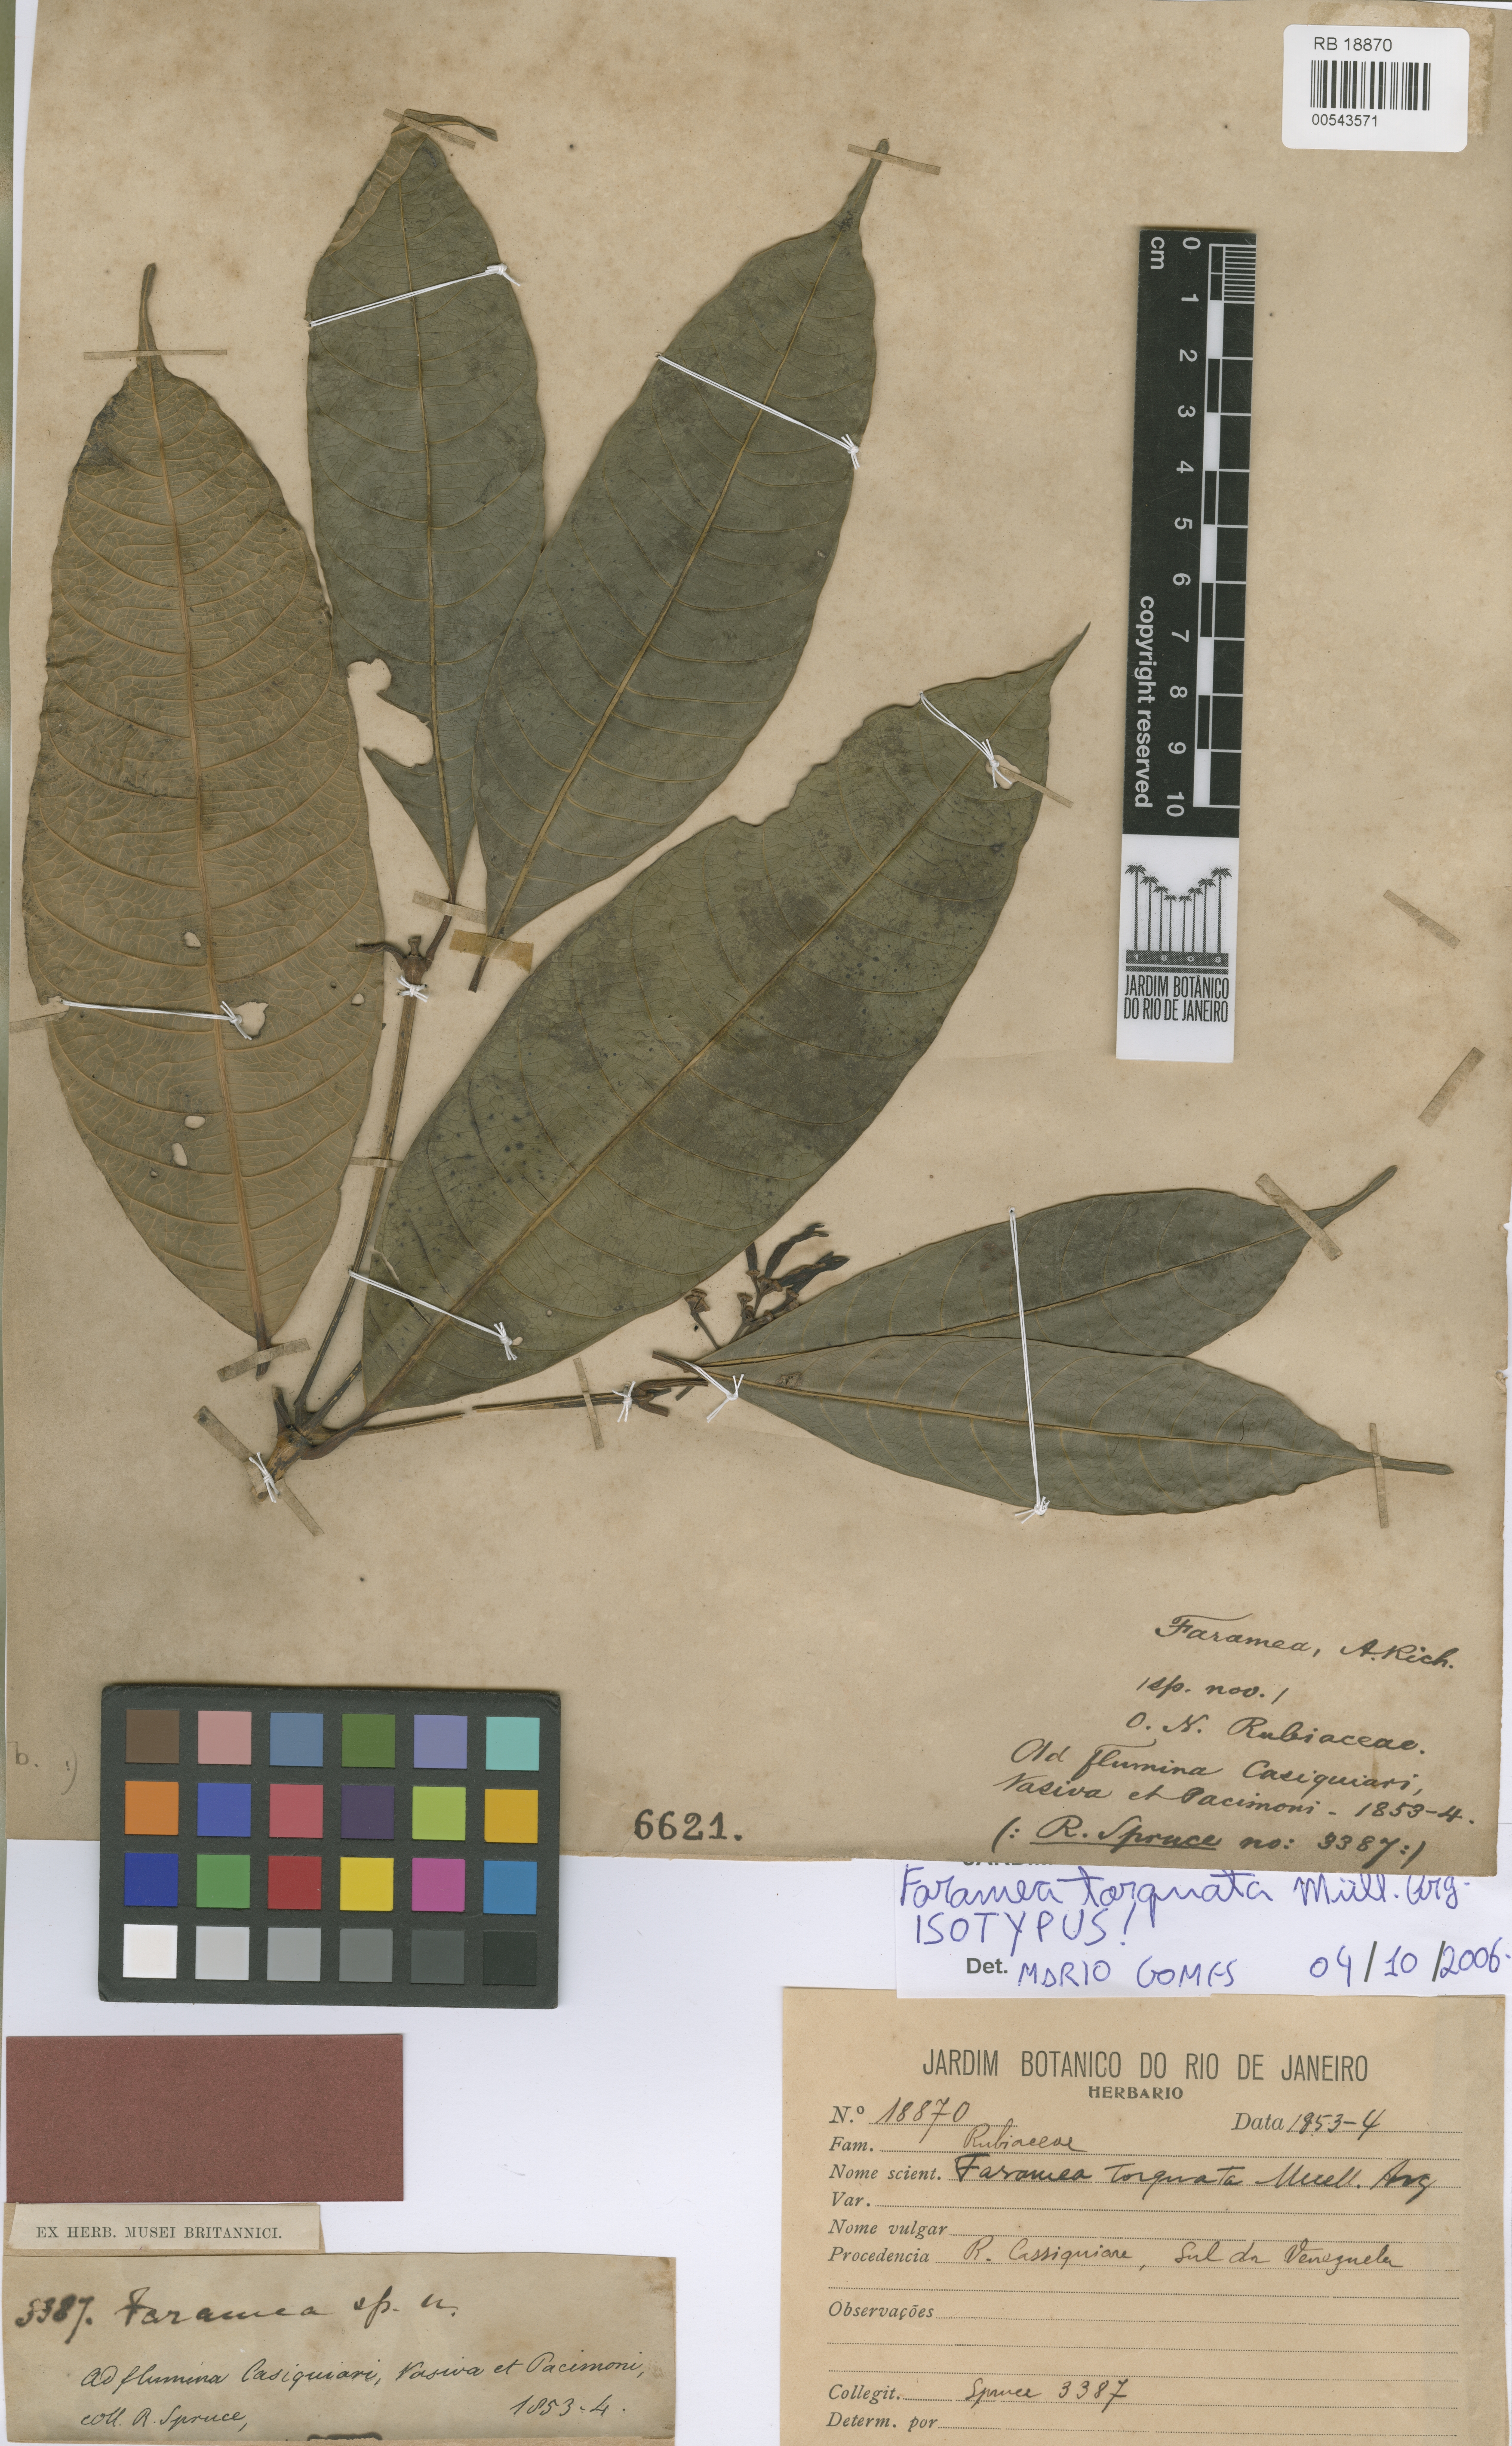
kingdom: Plantae
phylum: Tracheophyta
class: Magnoliopsida
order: Gentianales
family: Rubiaceae
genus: Faramea
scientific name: Faramea torquata
